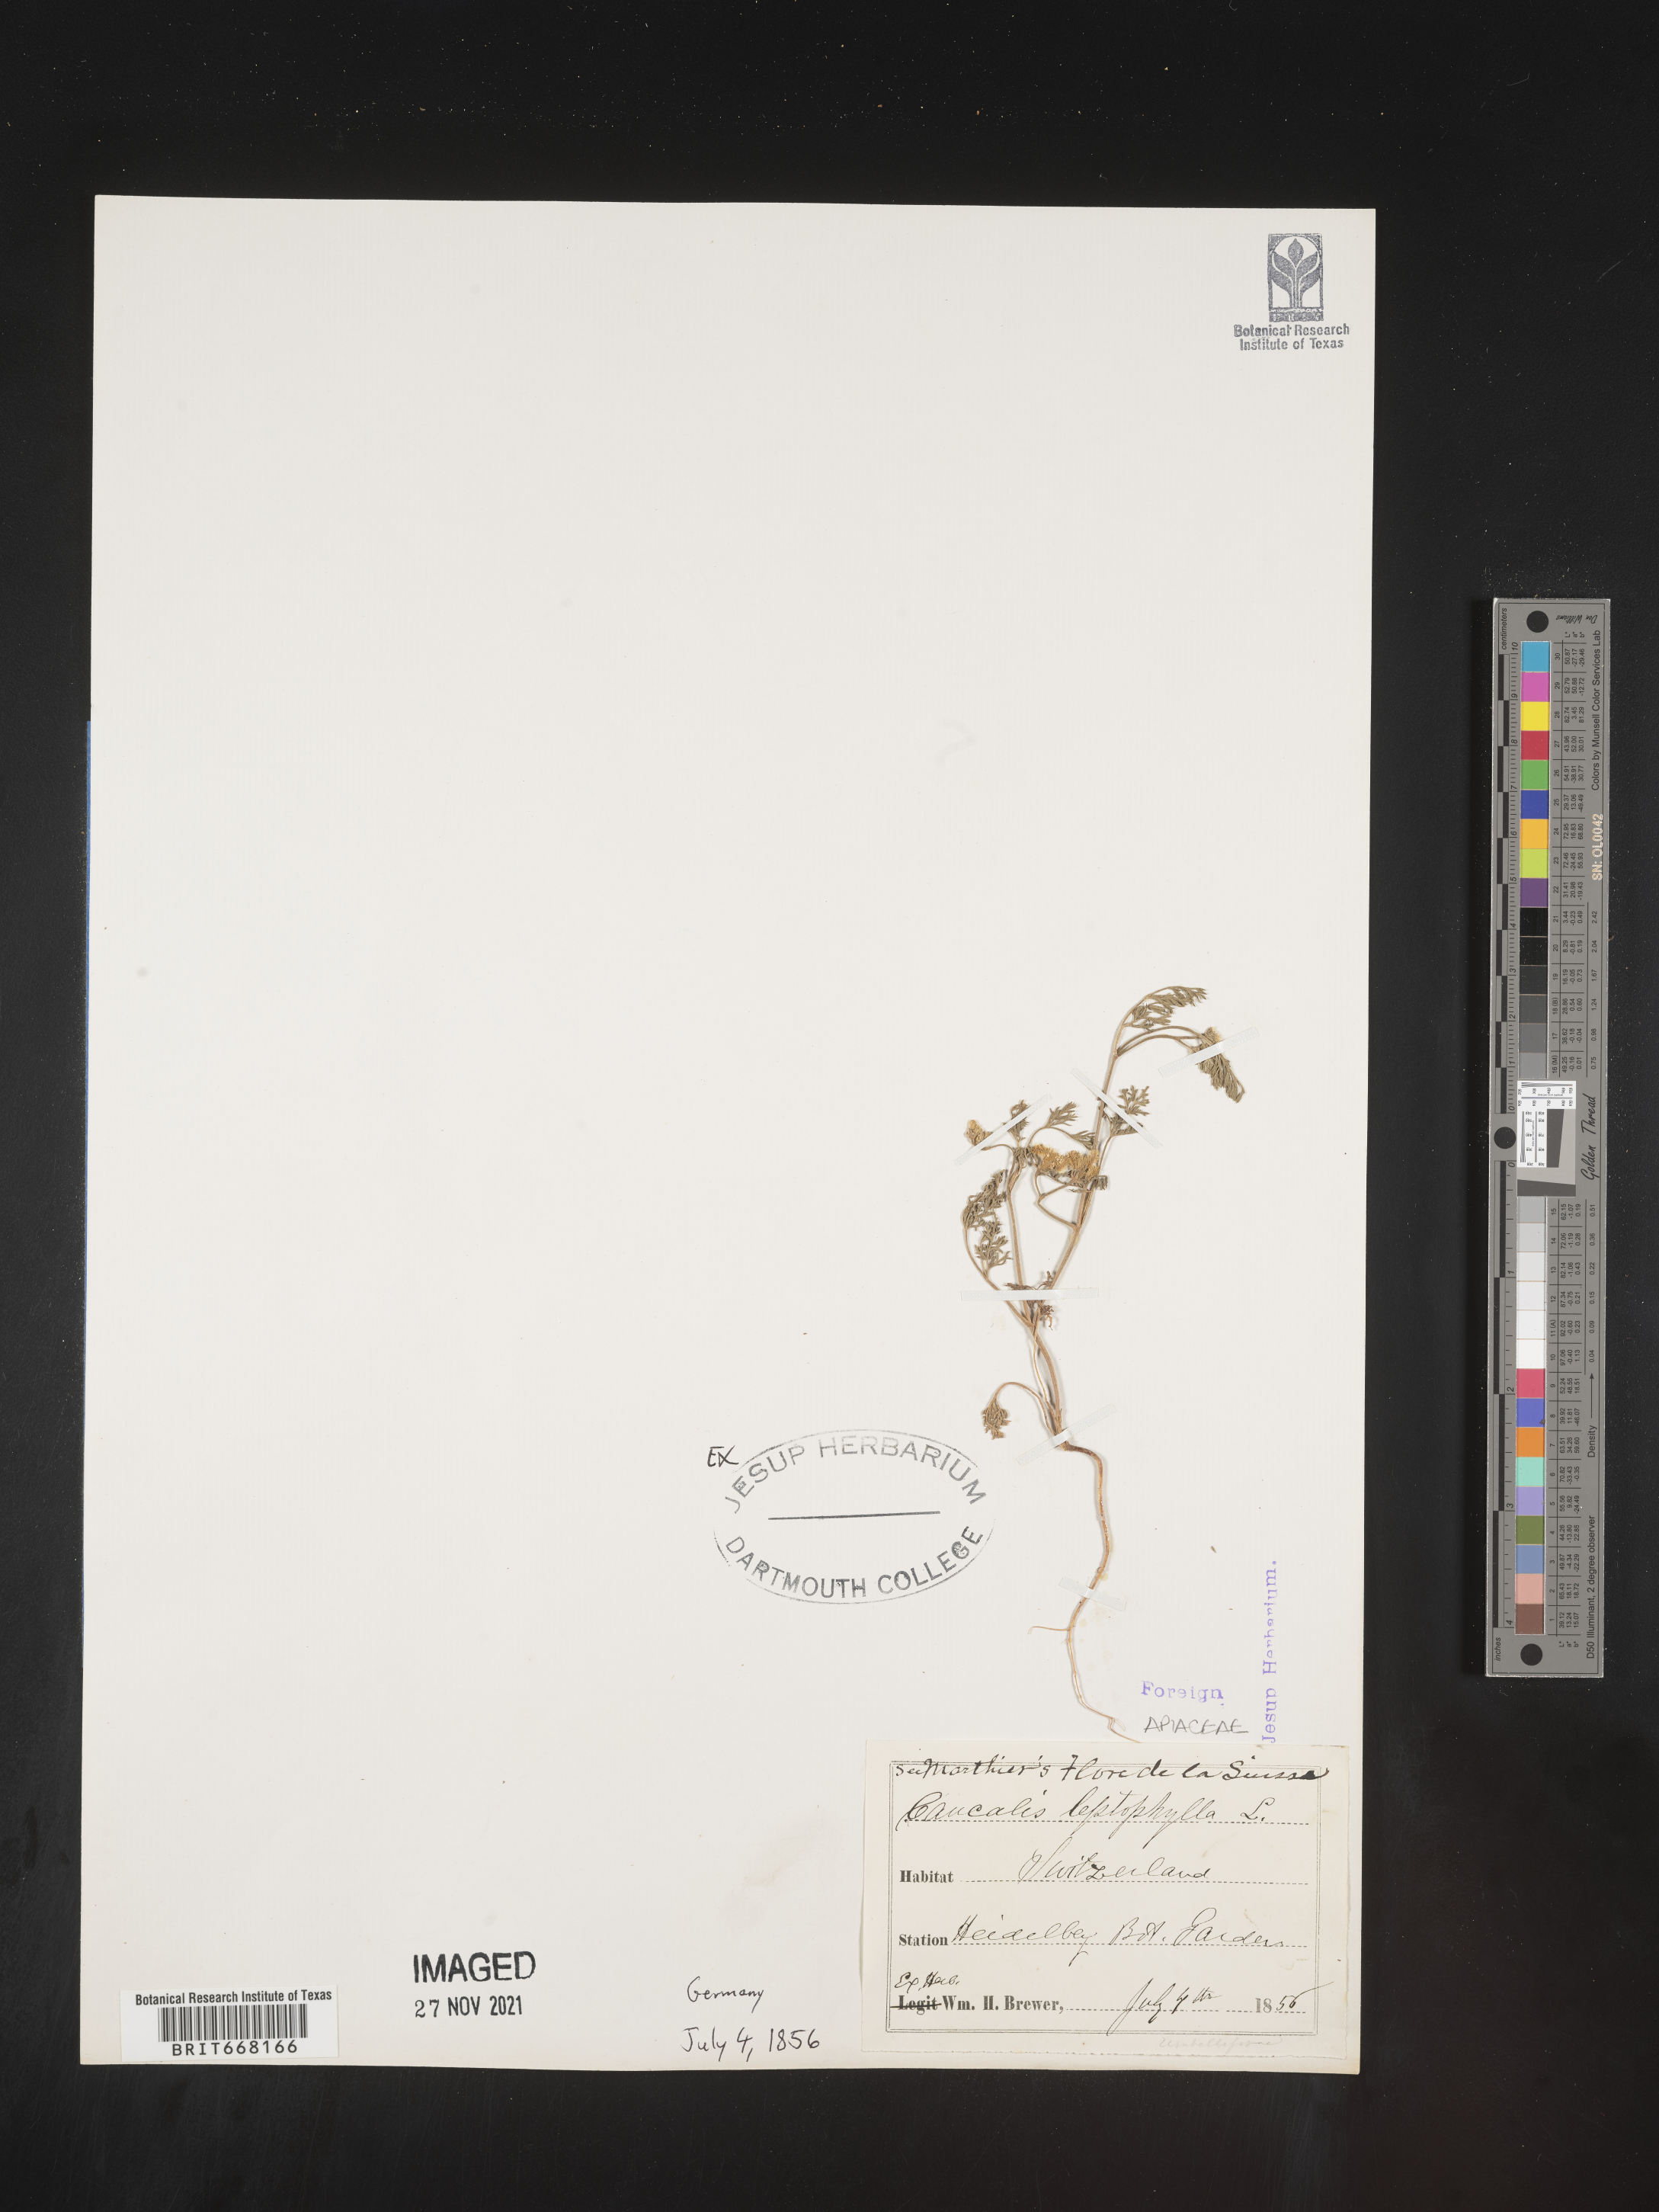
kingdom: Plantae
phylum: Tracheophyta
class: Magnoliopsida
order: Apiales
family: Apiaceae
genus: Caucalis
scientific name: Caucalis
